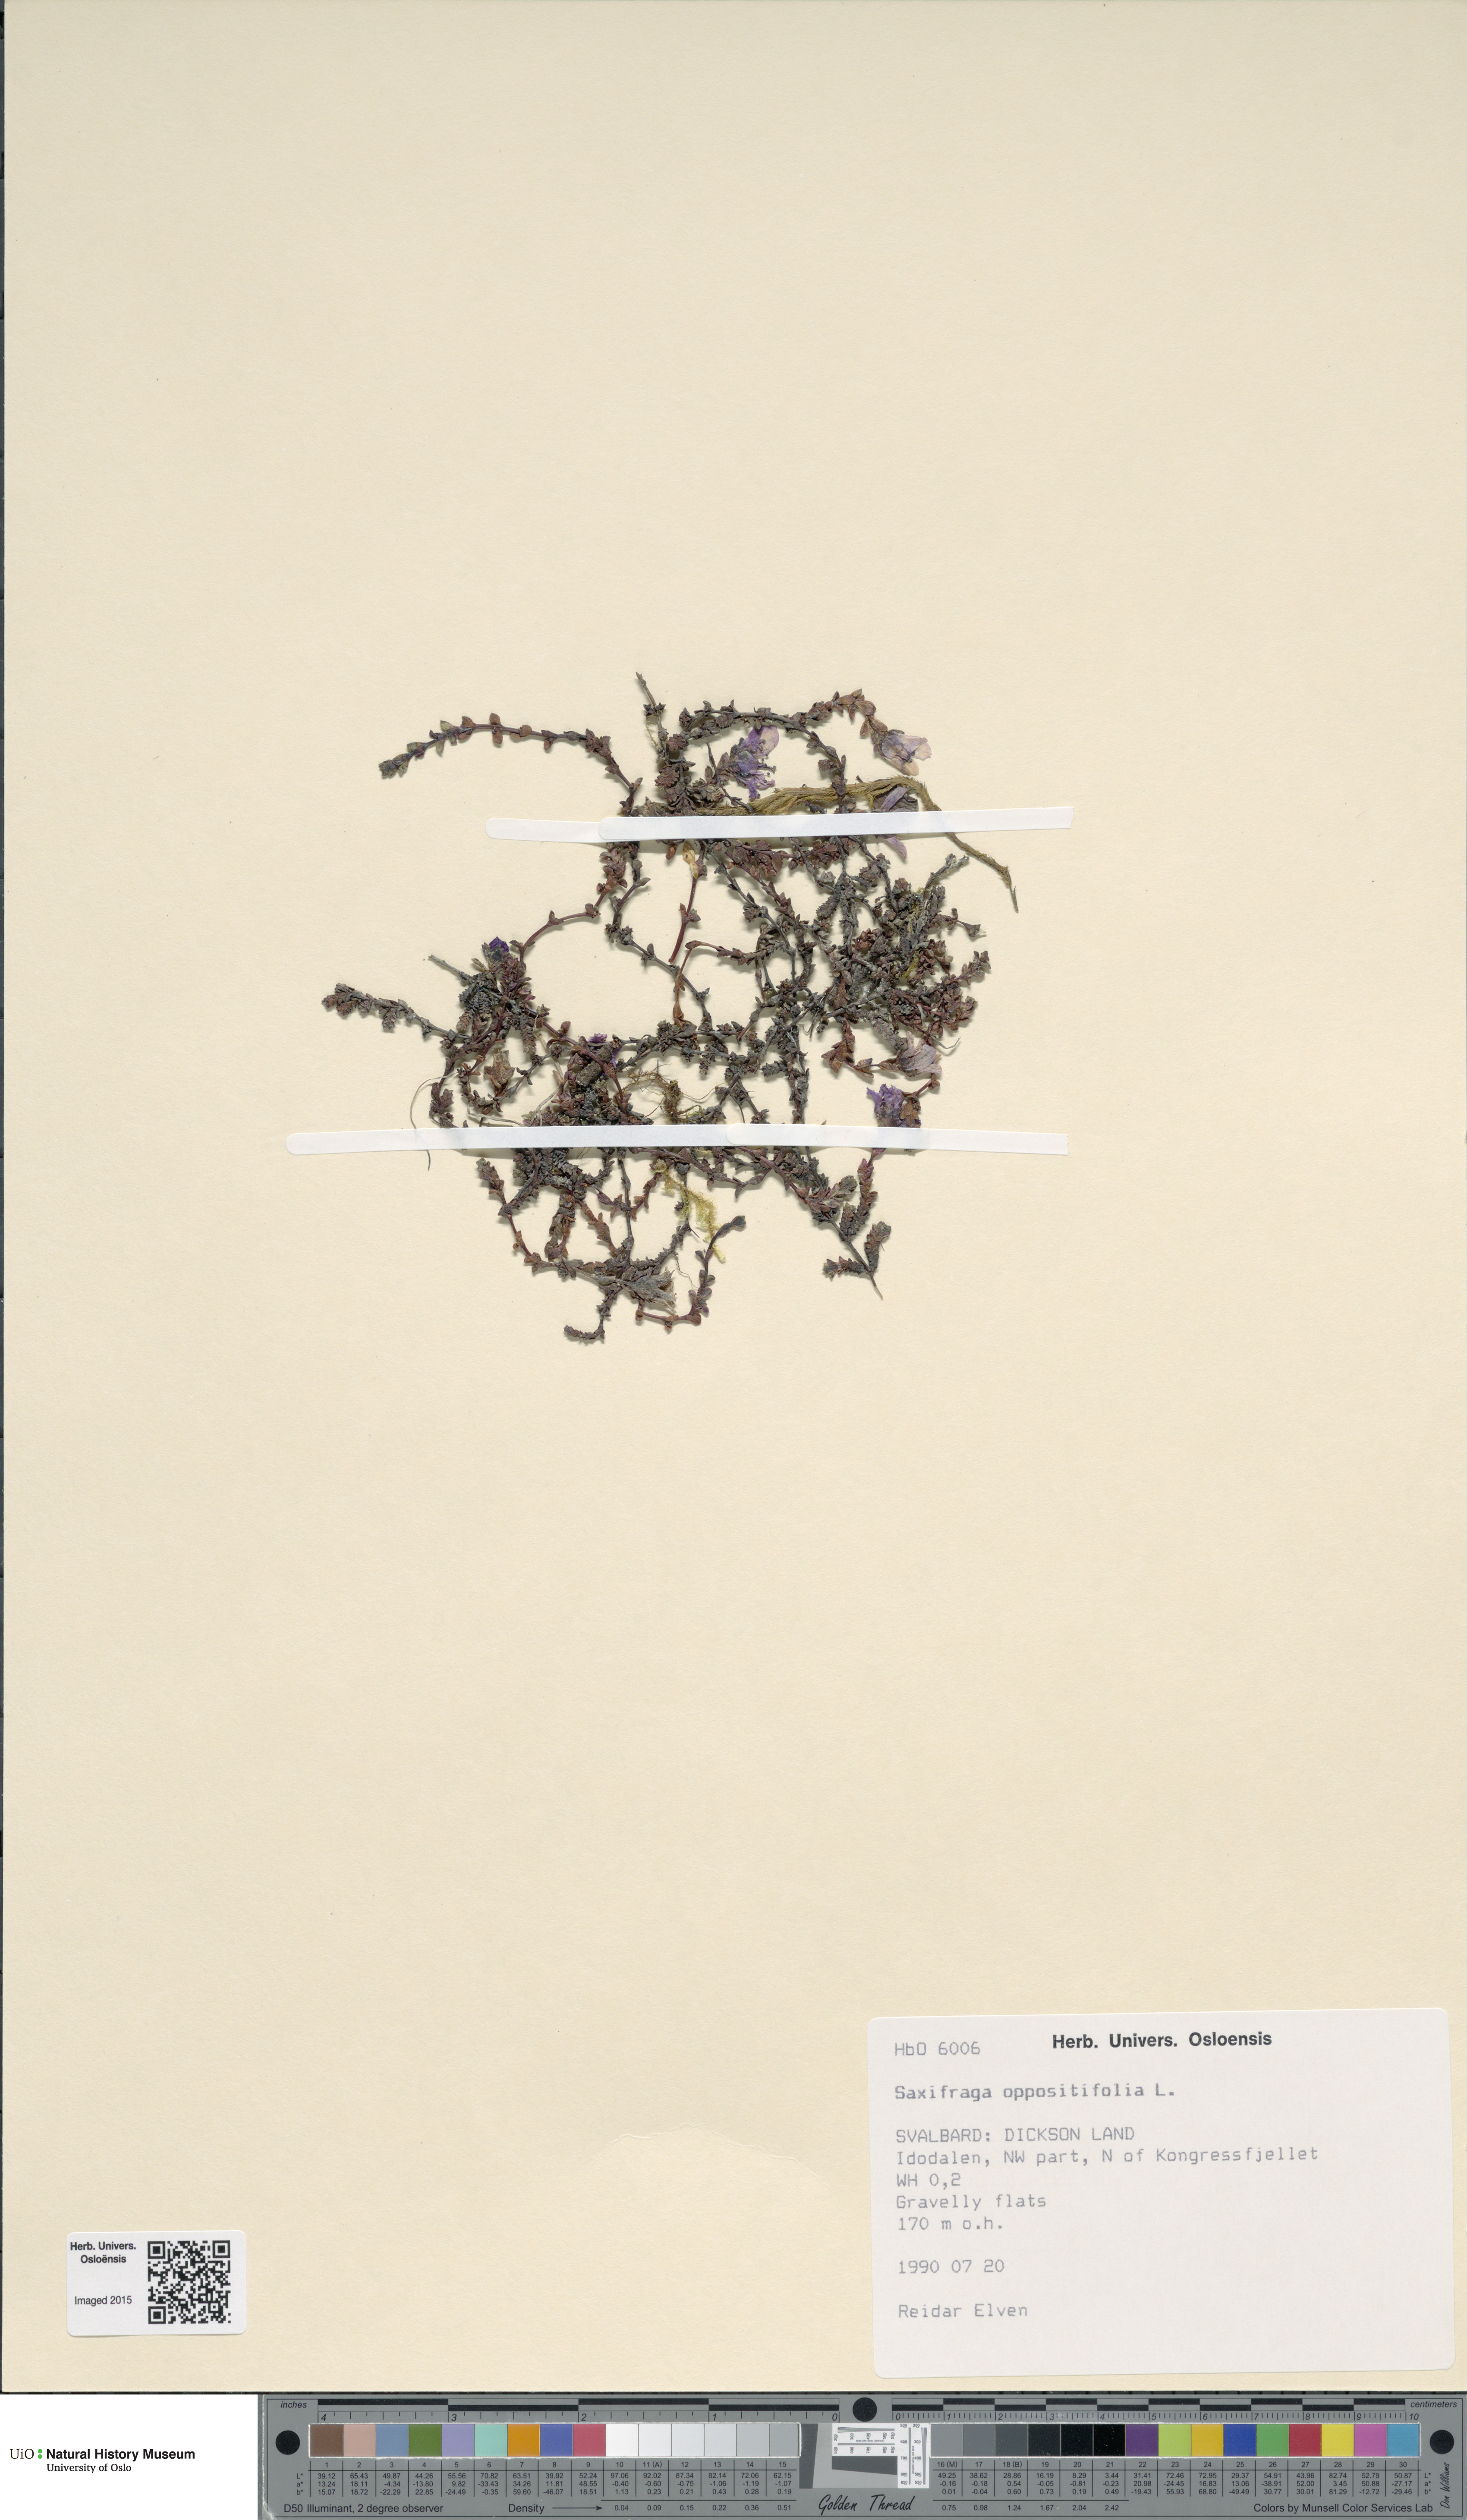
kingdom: Plantae
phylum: Tracheophyta
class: Magnoliopsida
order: Saxifragales
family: Saxifragaceae
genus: Saxifraga
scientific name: Saxifraga oppositifolia
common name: Purple saxifrage
